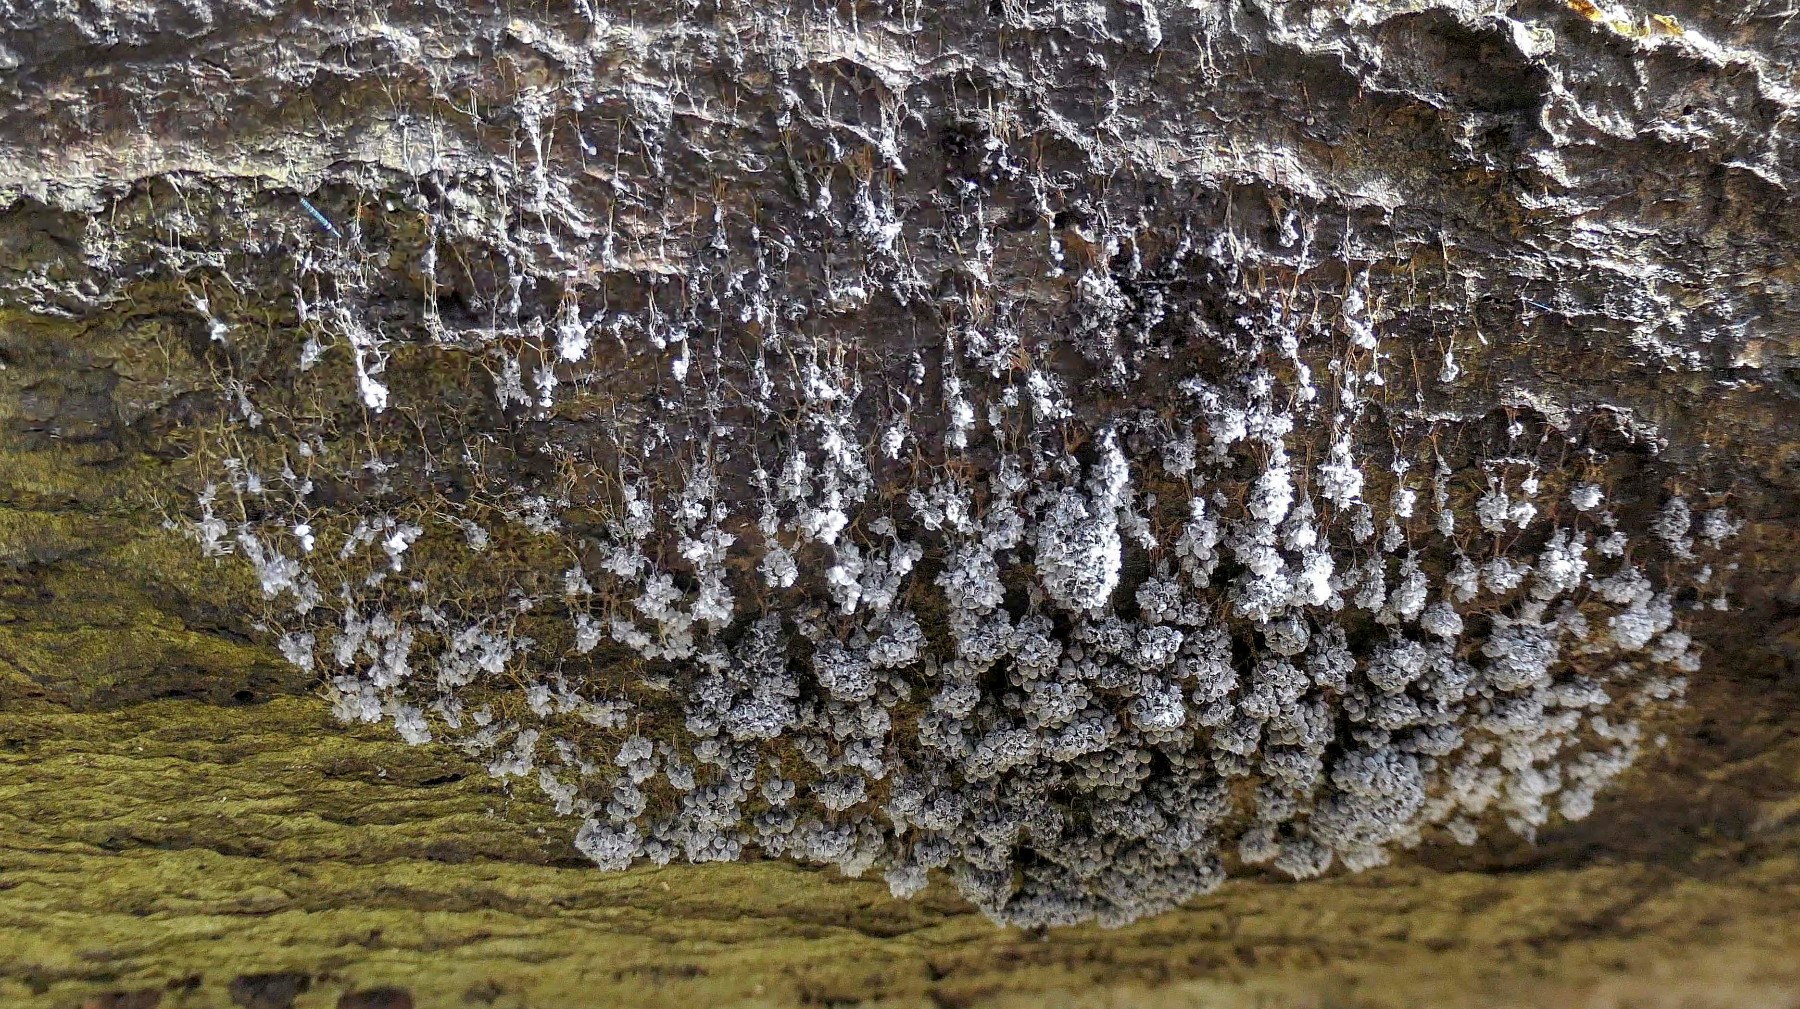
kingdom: Protozoa
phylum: Mycetozoa
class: Myxomycetes
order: Physarales
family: Physaraceae
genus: Badhamia
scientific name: Badhamia utricularis
